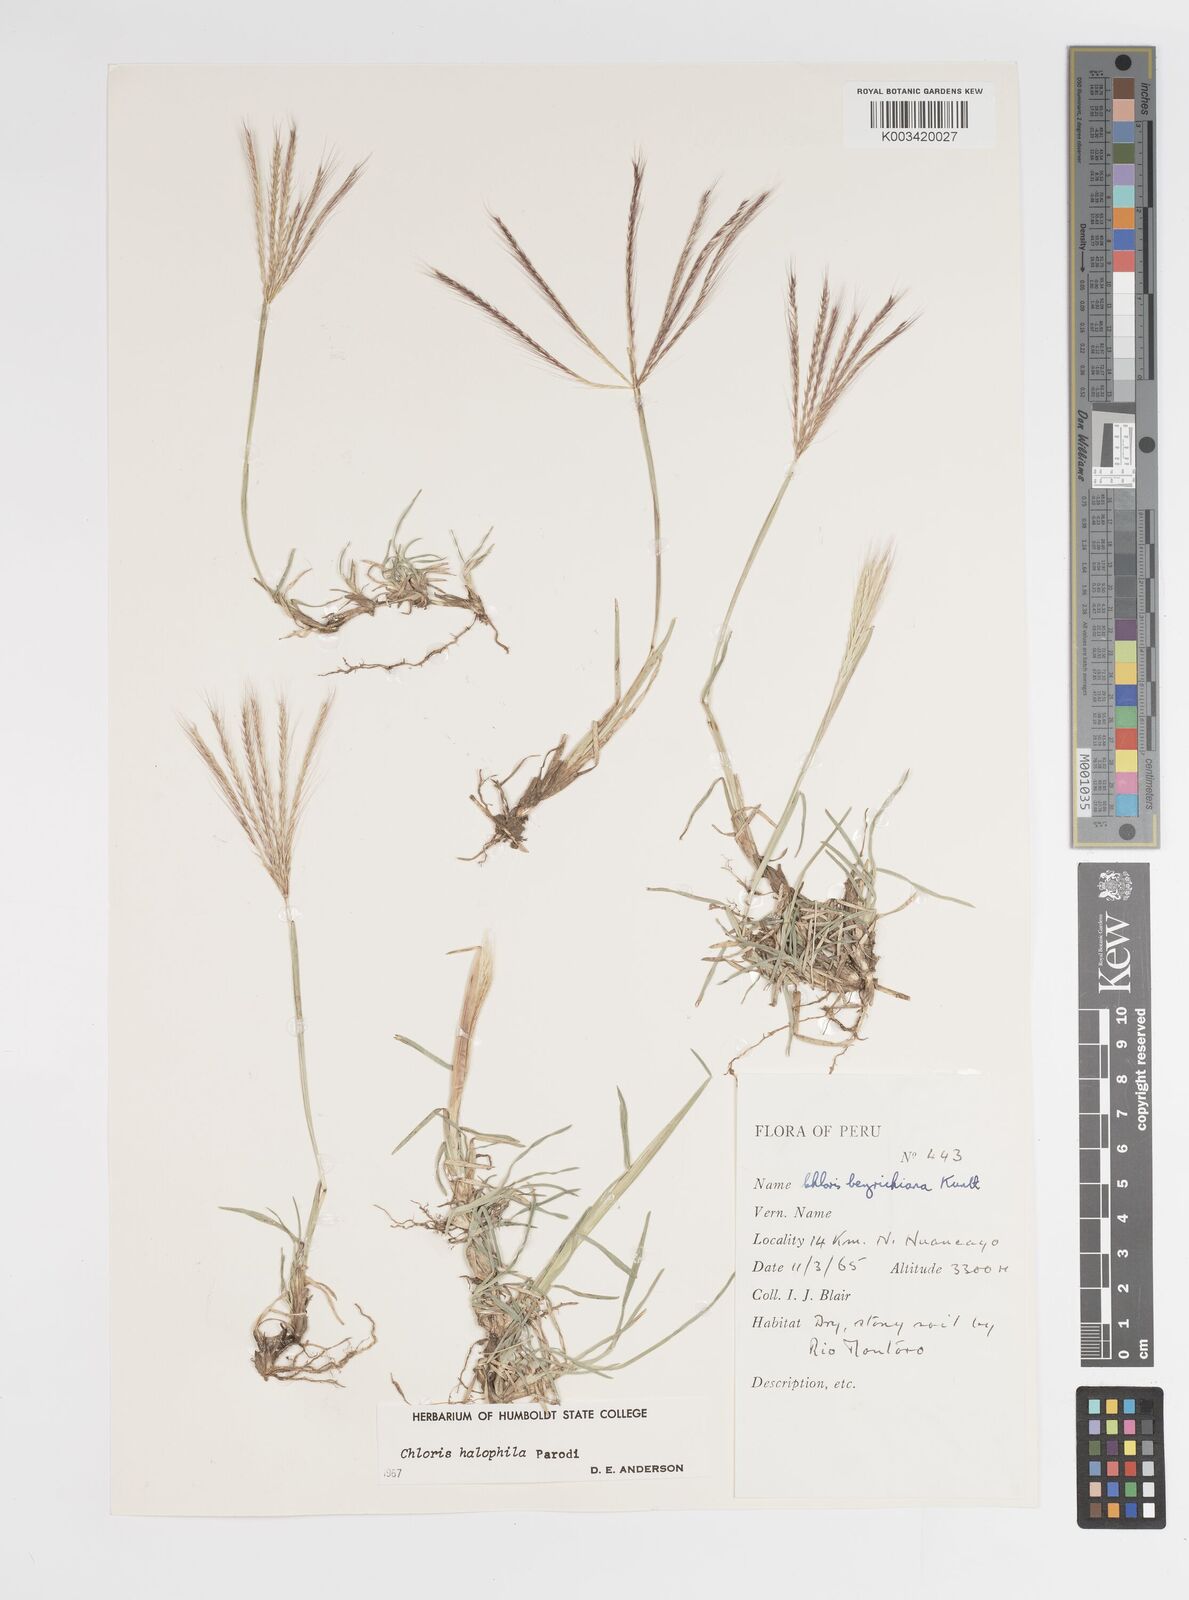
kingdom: Plantae
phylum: Tracheophyta
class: Liliopsida
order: Poales
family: Poaceae
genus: Chloris
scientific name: Chloris halophila
